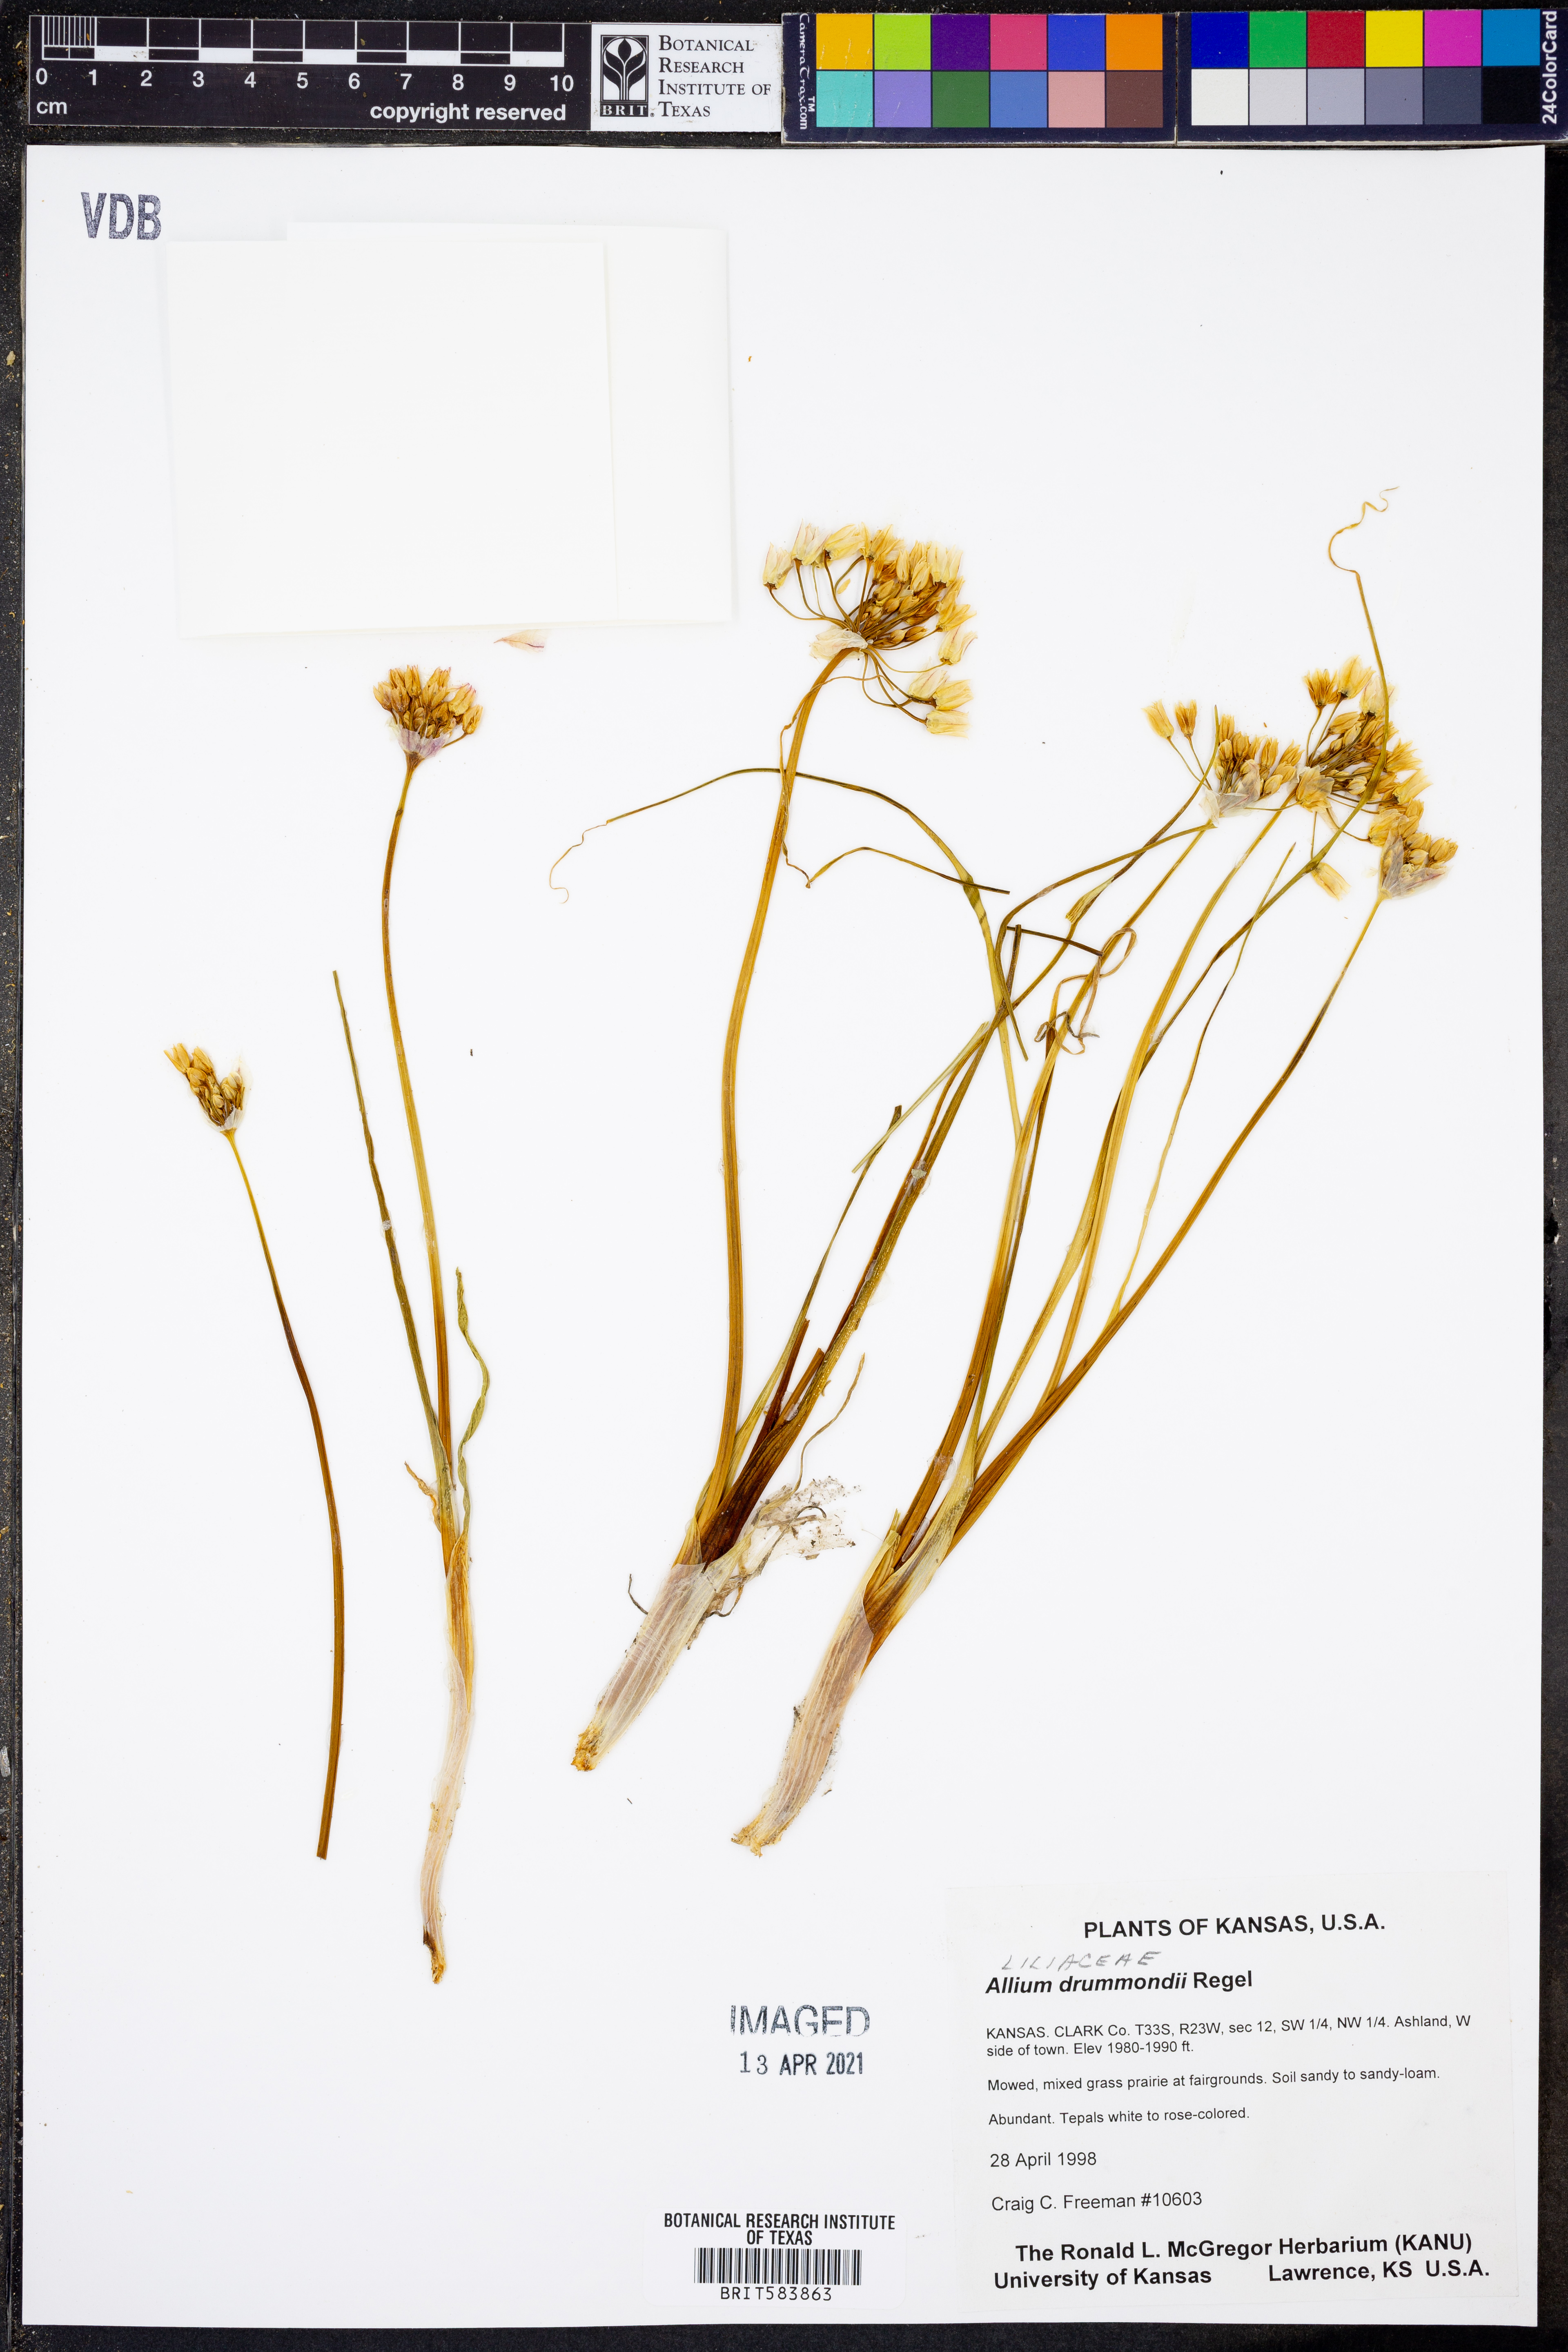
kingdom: Plantae
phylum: Tracheophyta
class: Liliopsida
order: Asparagales
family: Amaryllidaceae
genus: Allium
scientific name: Allium drummondii
